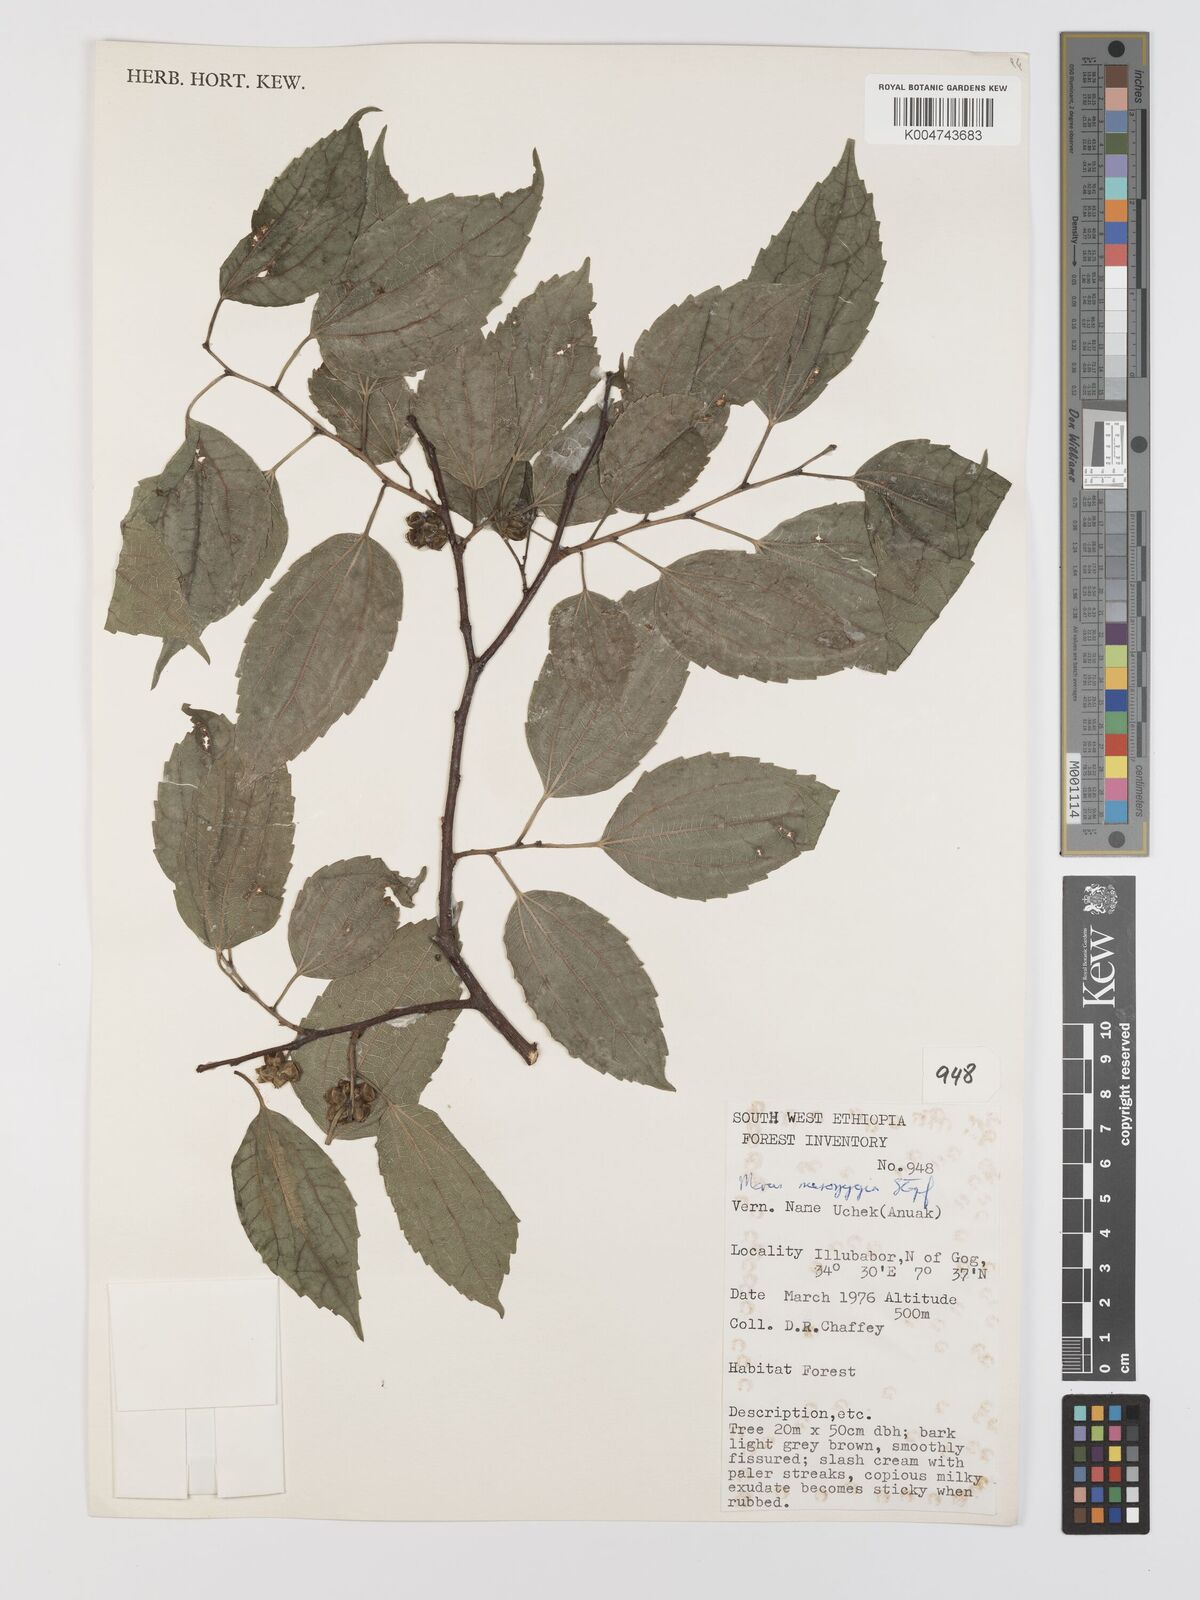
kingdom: Plantae
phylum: Tracheophyta
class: Magnoliopsida
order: Rosales
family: Moraceae
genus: Afromorus
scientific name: Afromorus mesozygia
